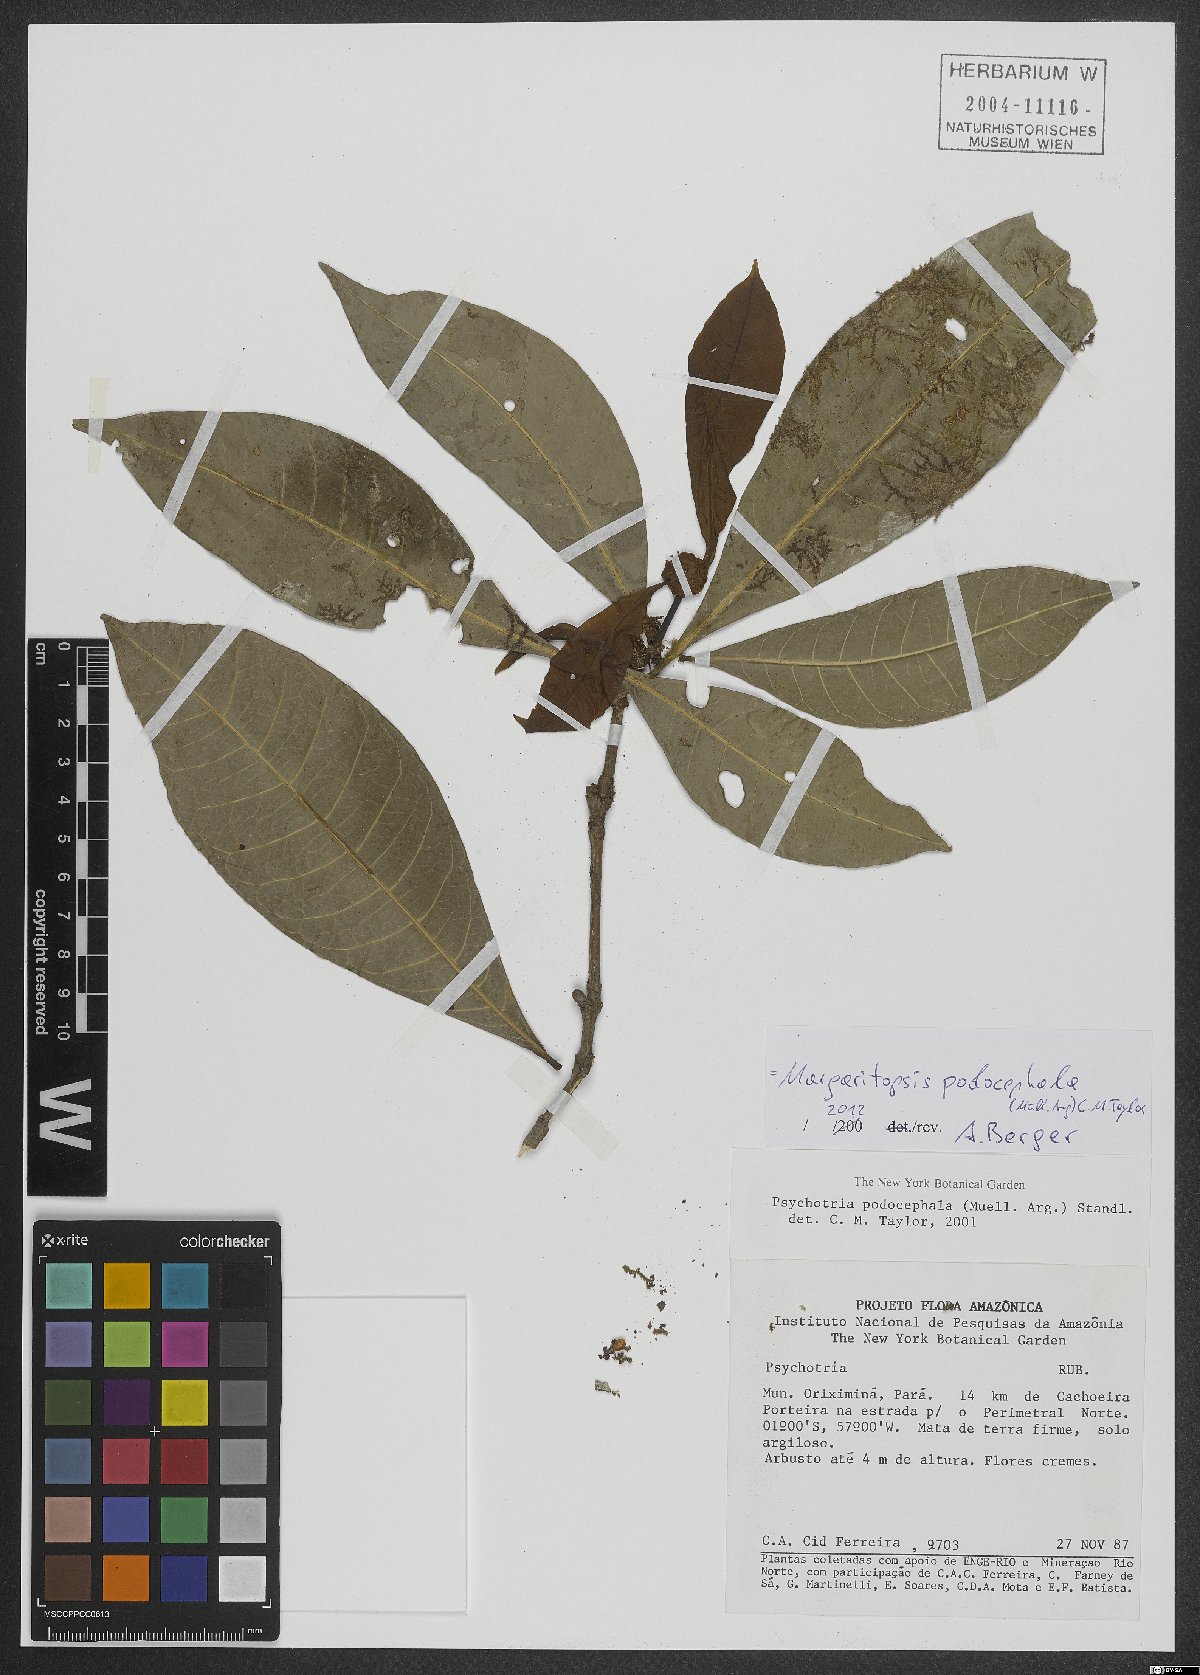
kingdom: Plantae
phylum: Tracheophyta
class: Magnoliopsida
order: Gentianales
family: Rubiaceae
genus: Eumachia
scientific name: Eumachia podocephala
